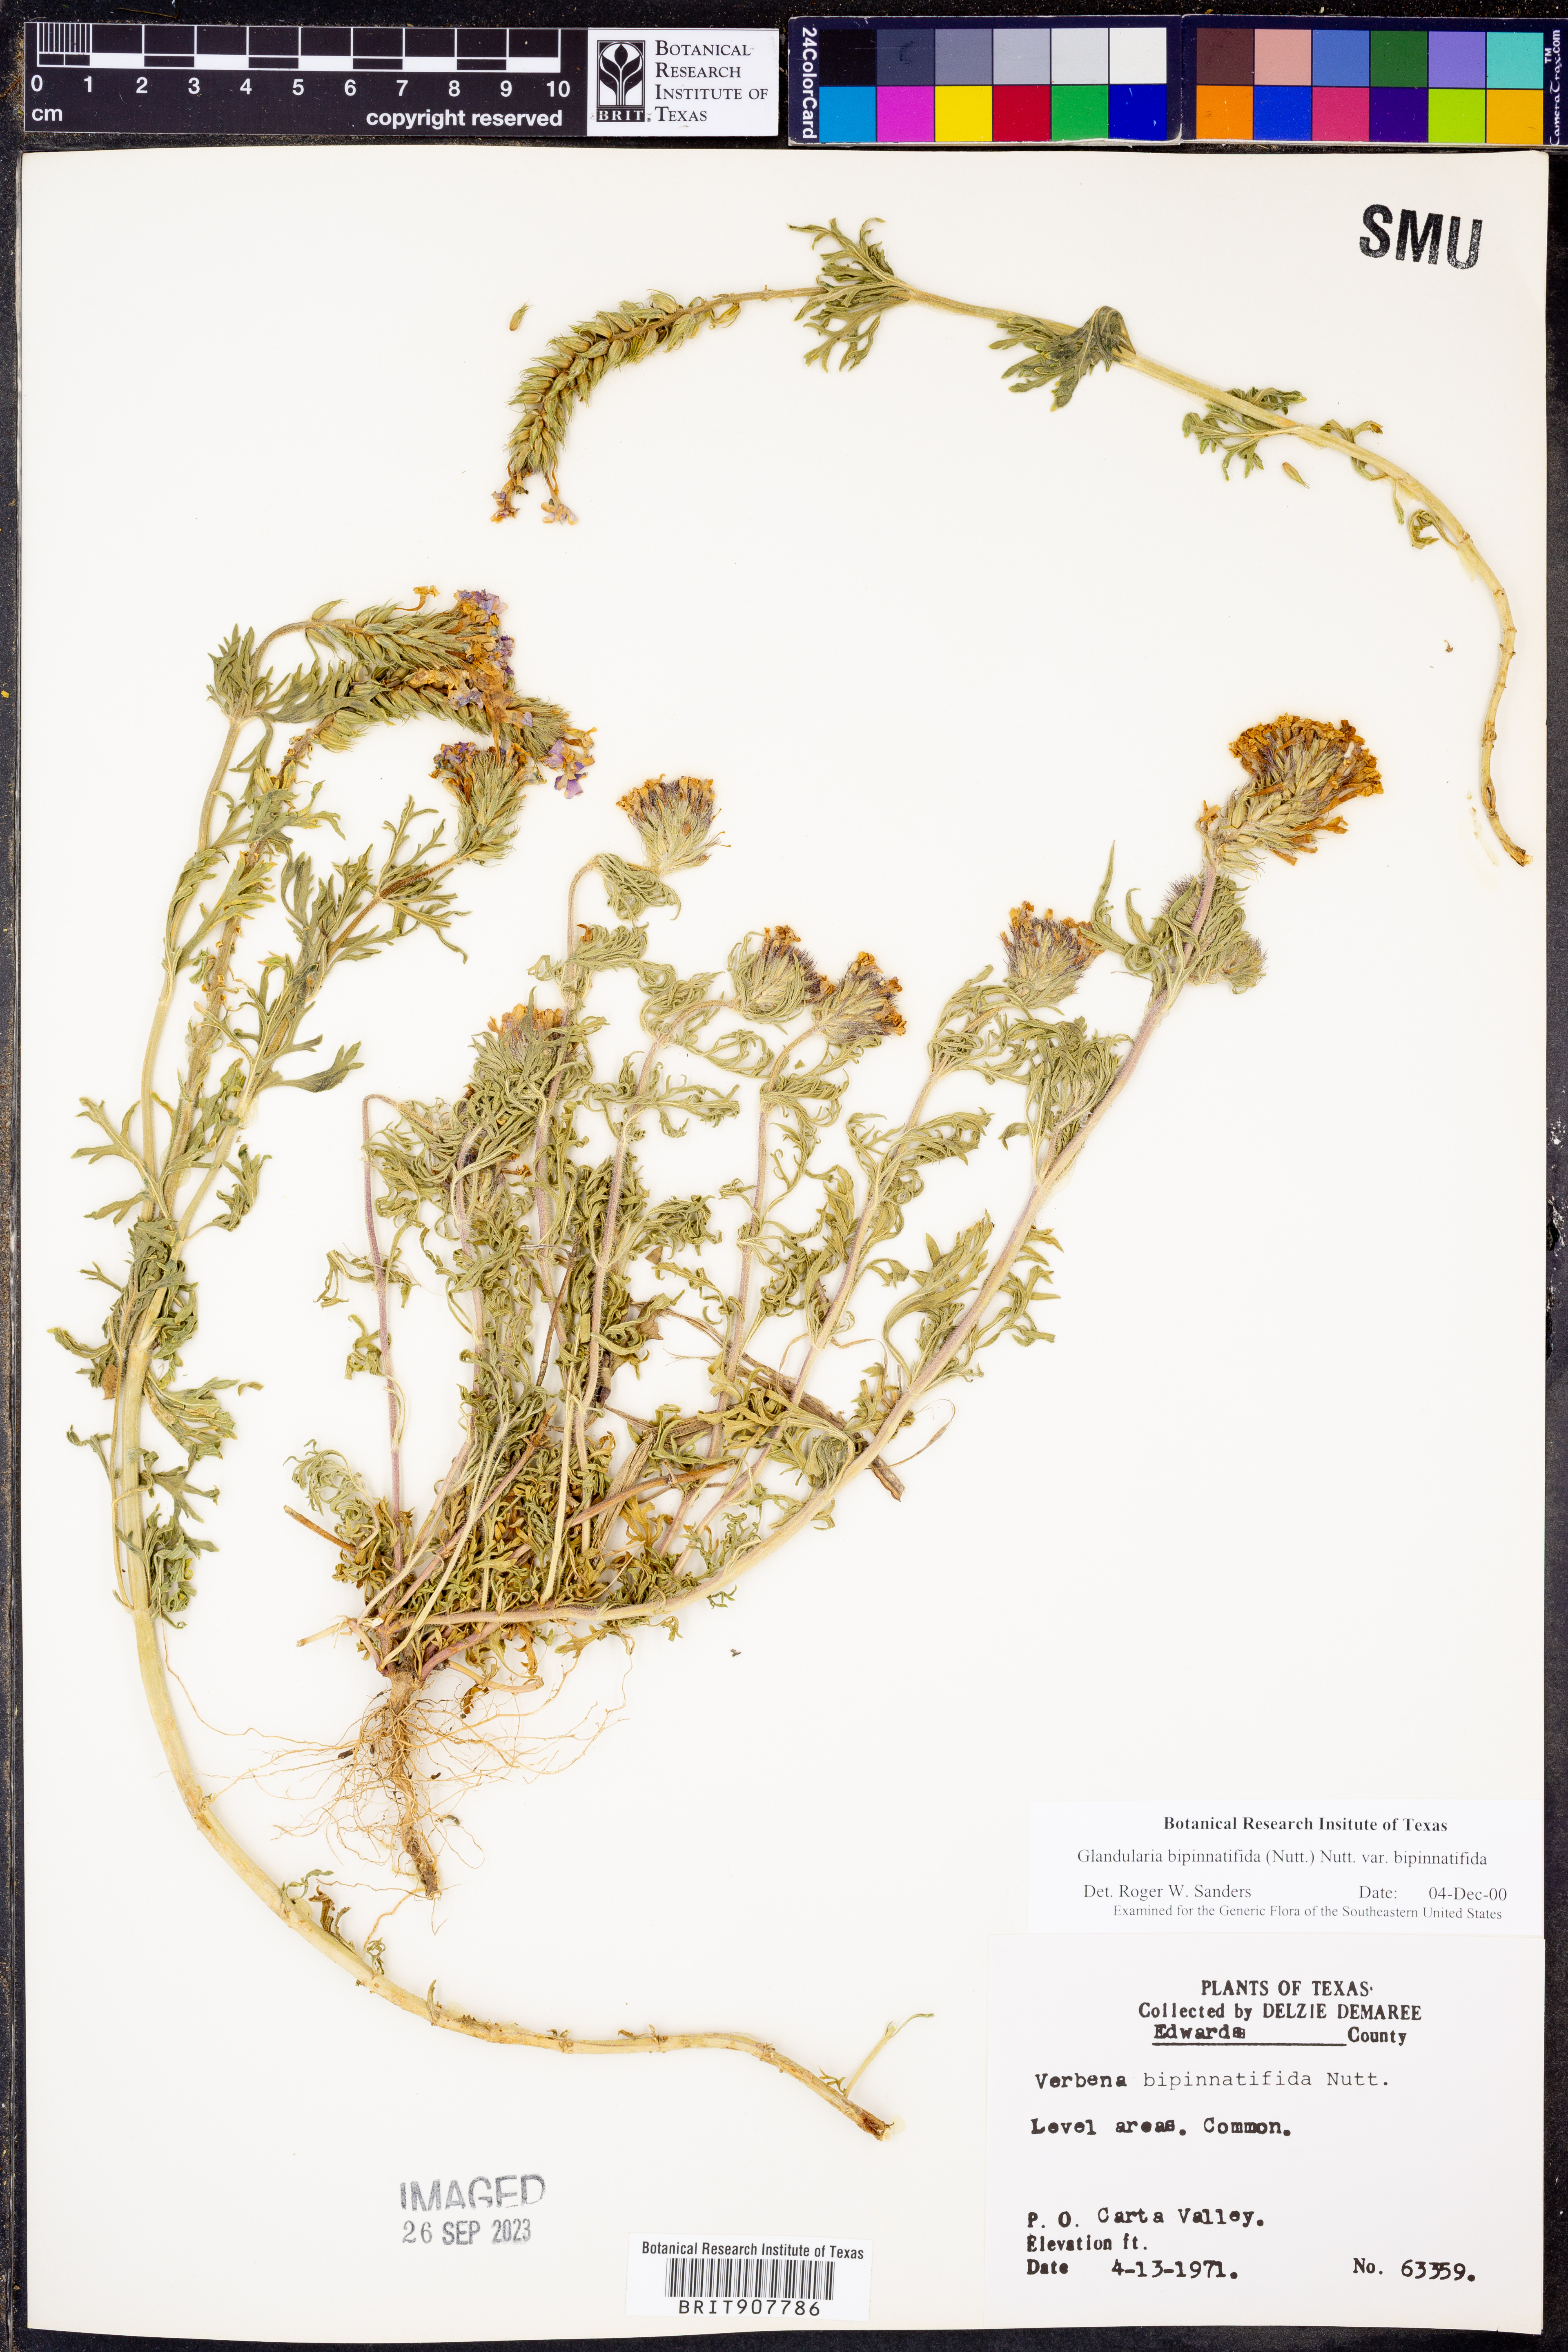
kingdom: Plantae
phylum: Tracheophyta
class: Magnoliopsida
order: Lamiales
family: Verbenaceae
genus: Verbena
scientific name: Verbena bipinnatifida
